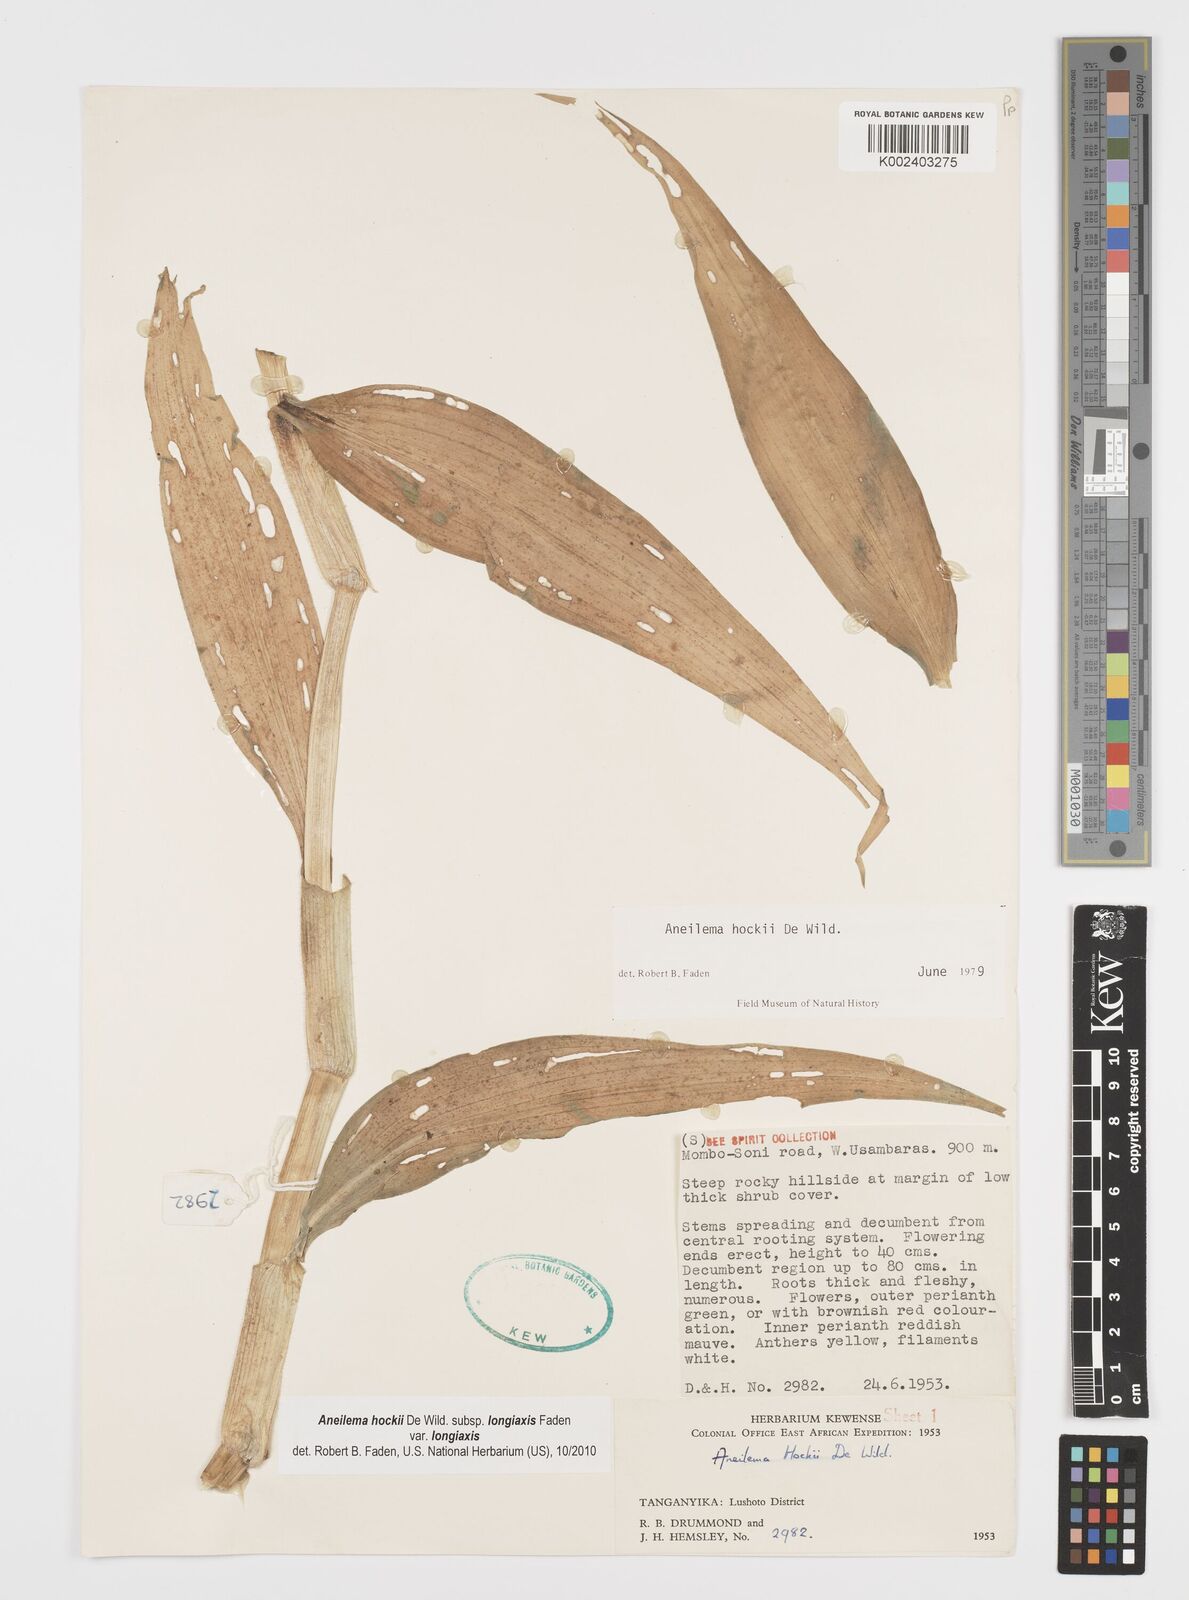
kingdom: Plantae
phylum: Tracheophyta
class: Liliopsida
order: Commelinales
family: Commelinaceae
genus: Aneilema
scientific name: Aneilema hockii
